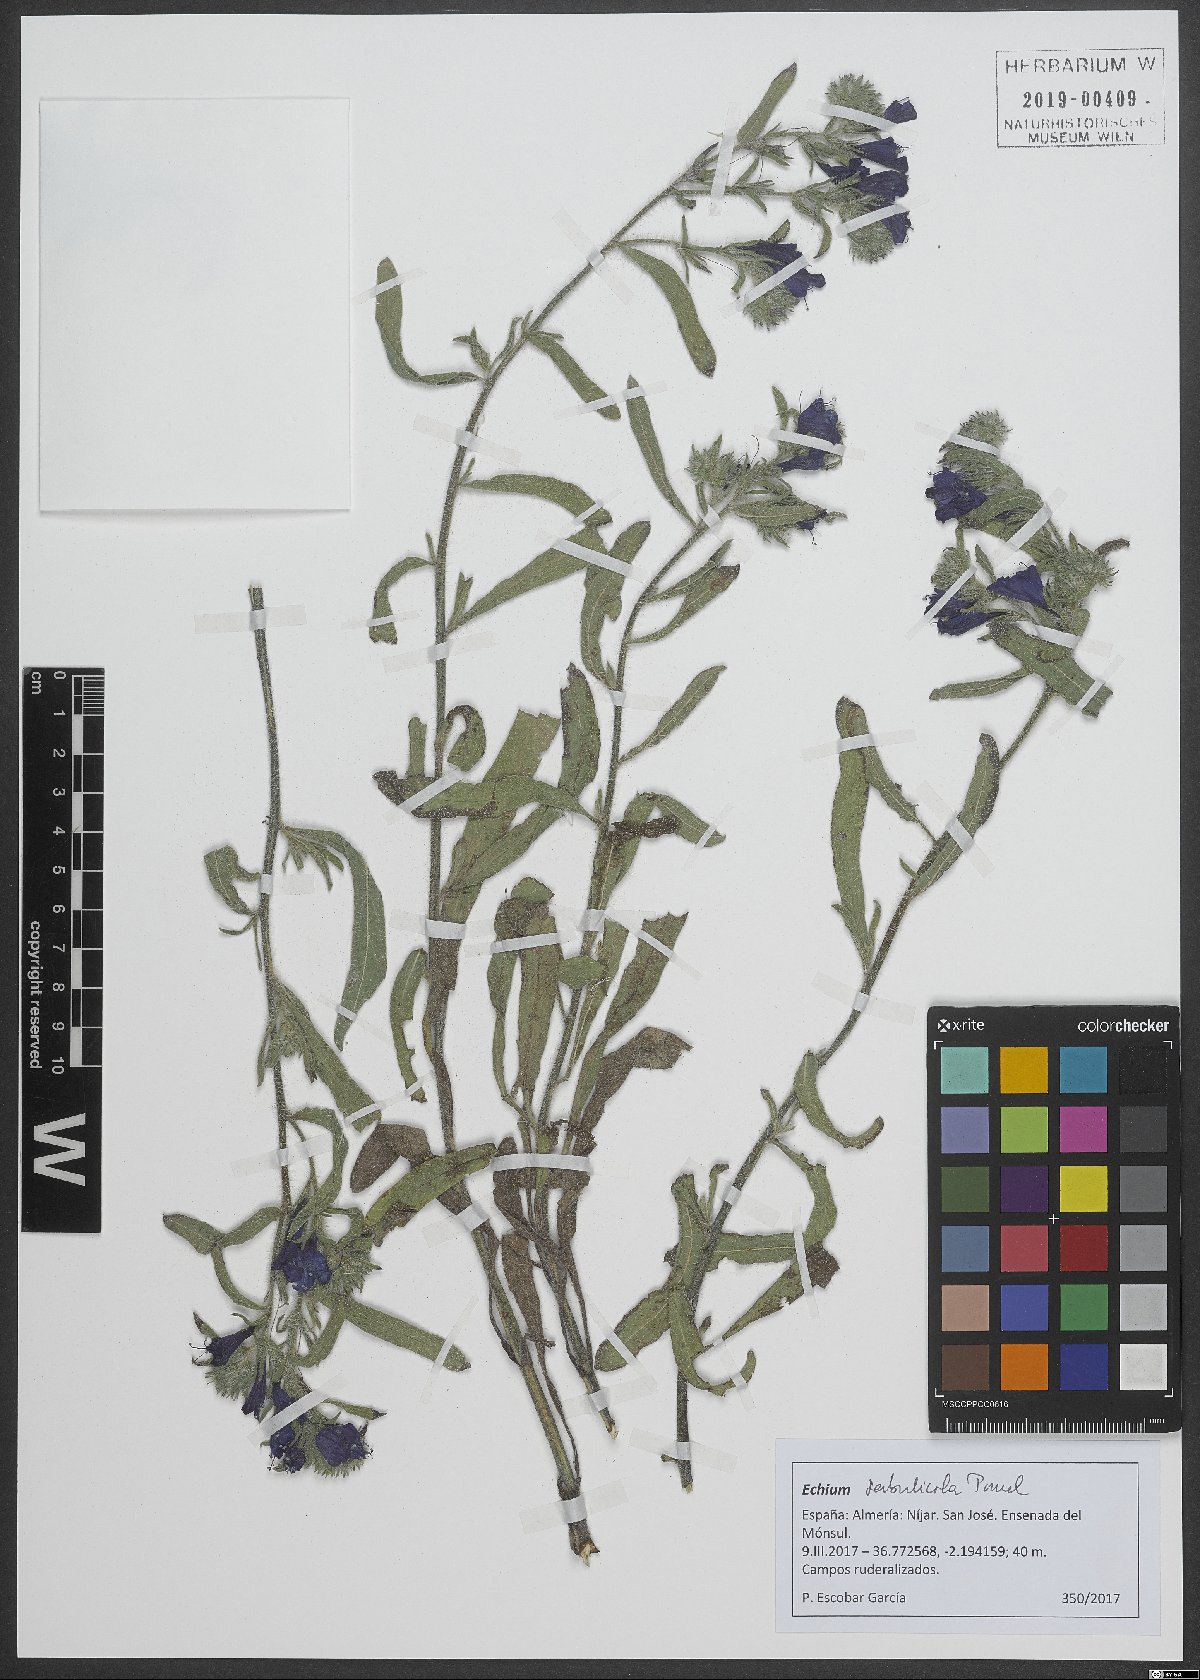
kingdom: Plantae
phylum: Tracheophyta
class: Magnoliopsida
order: Boraginales
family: Boraginaceae
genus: Echium
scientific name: Echium sabulicola
